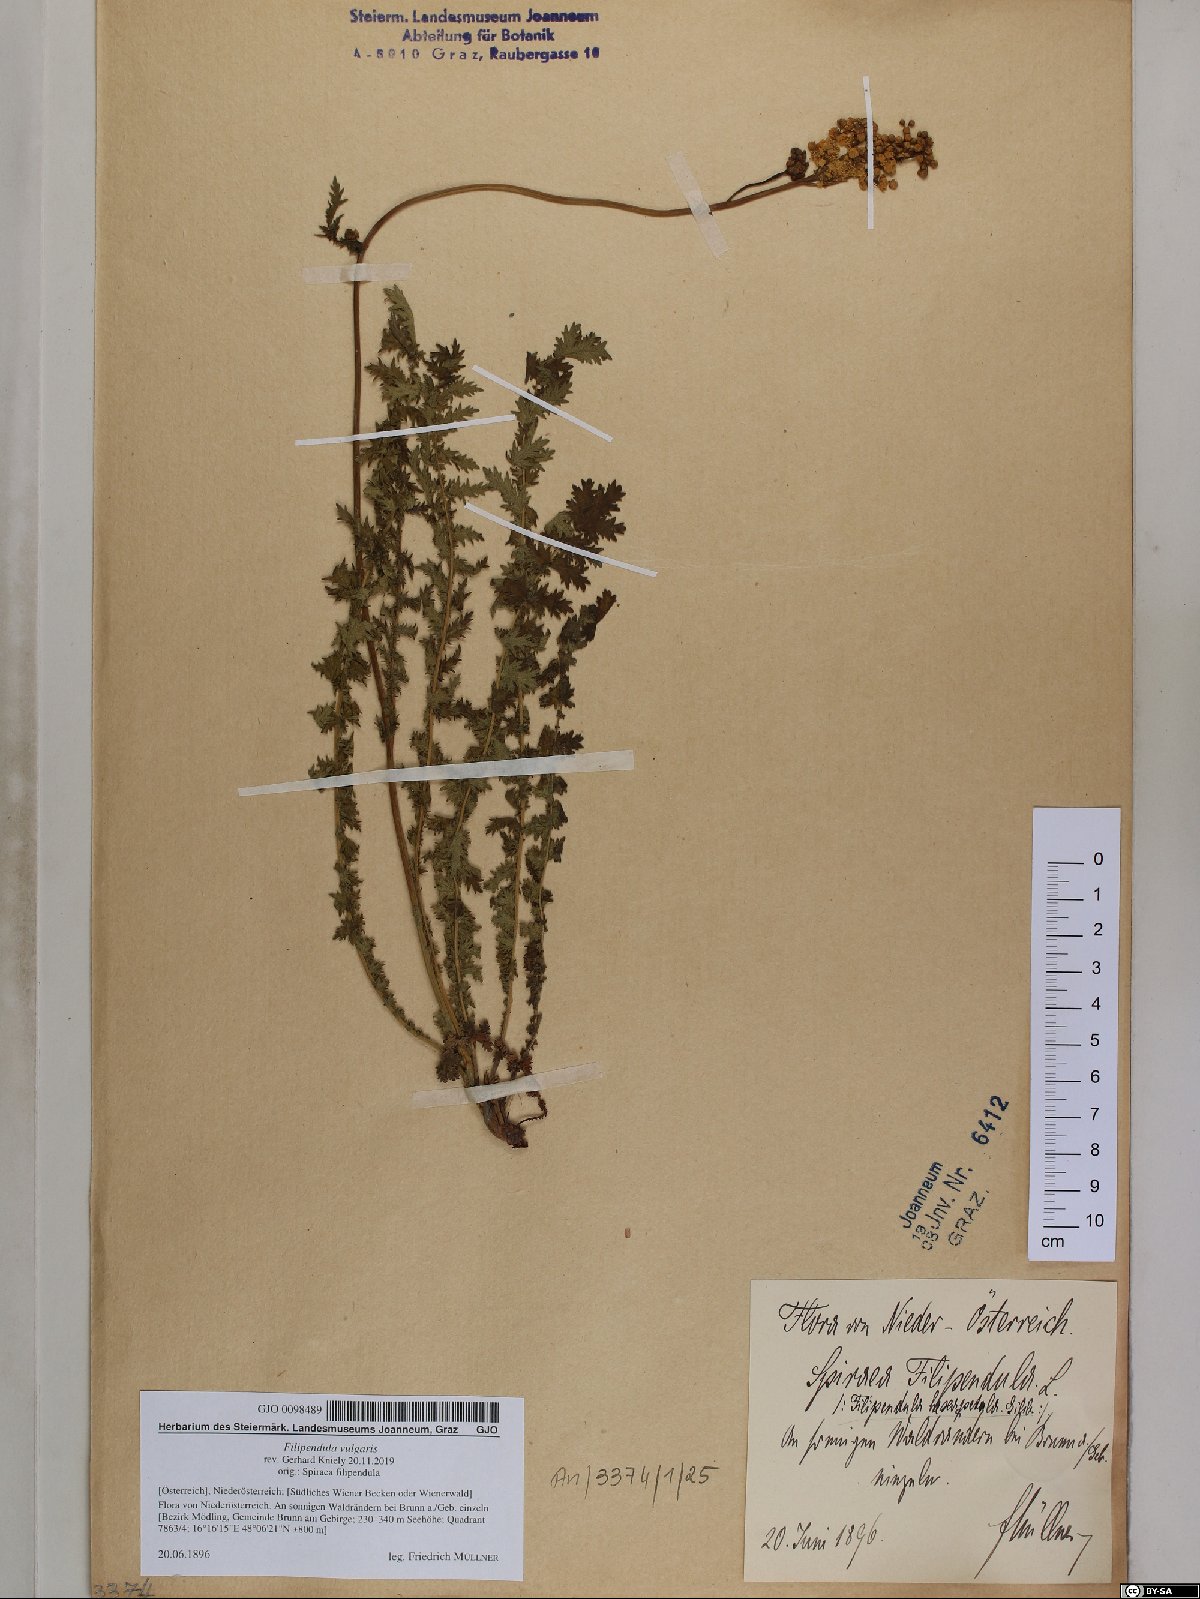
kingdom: Plantae
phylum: Tracheophyta
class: Magnoliopsida
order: Rosales
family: Rosaceae
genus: Filipendula
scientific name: Filipendula vulgaris
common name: Dropwort
